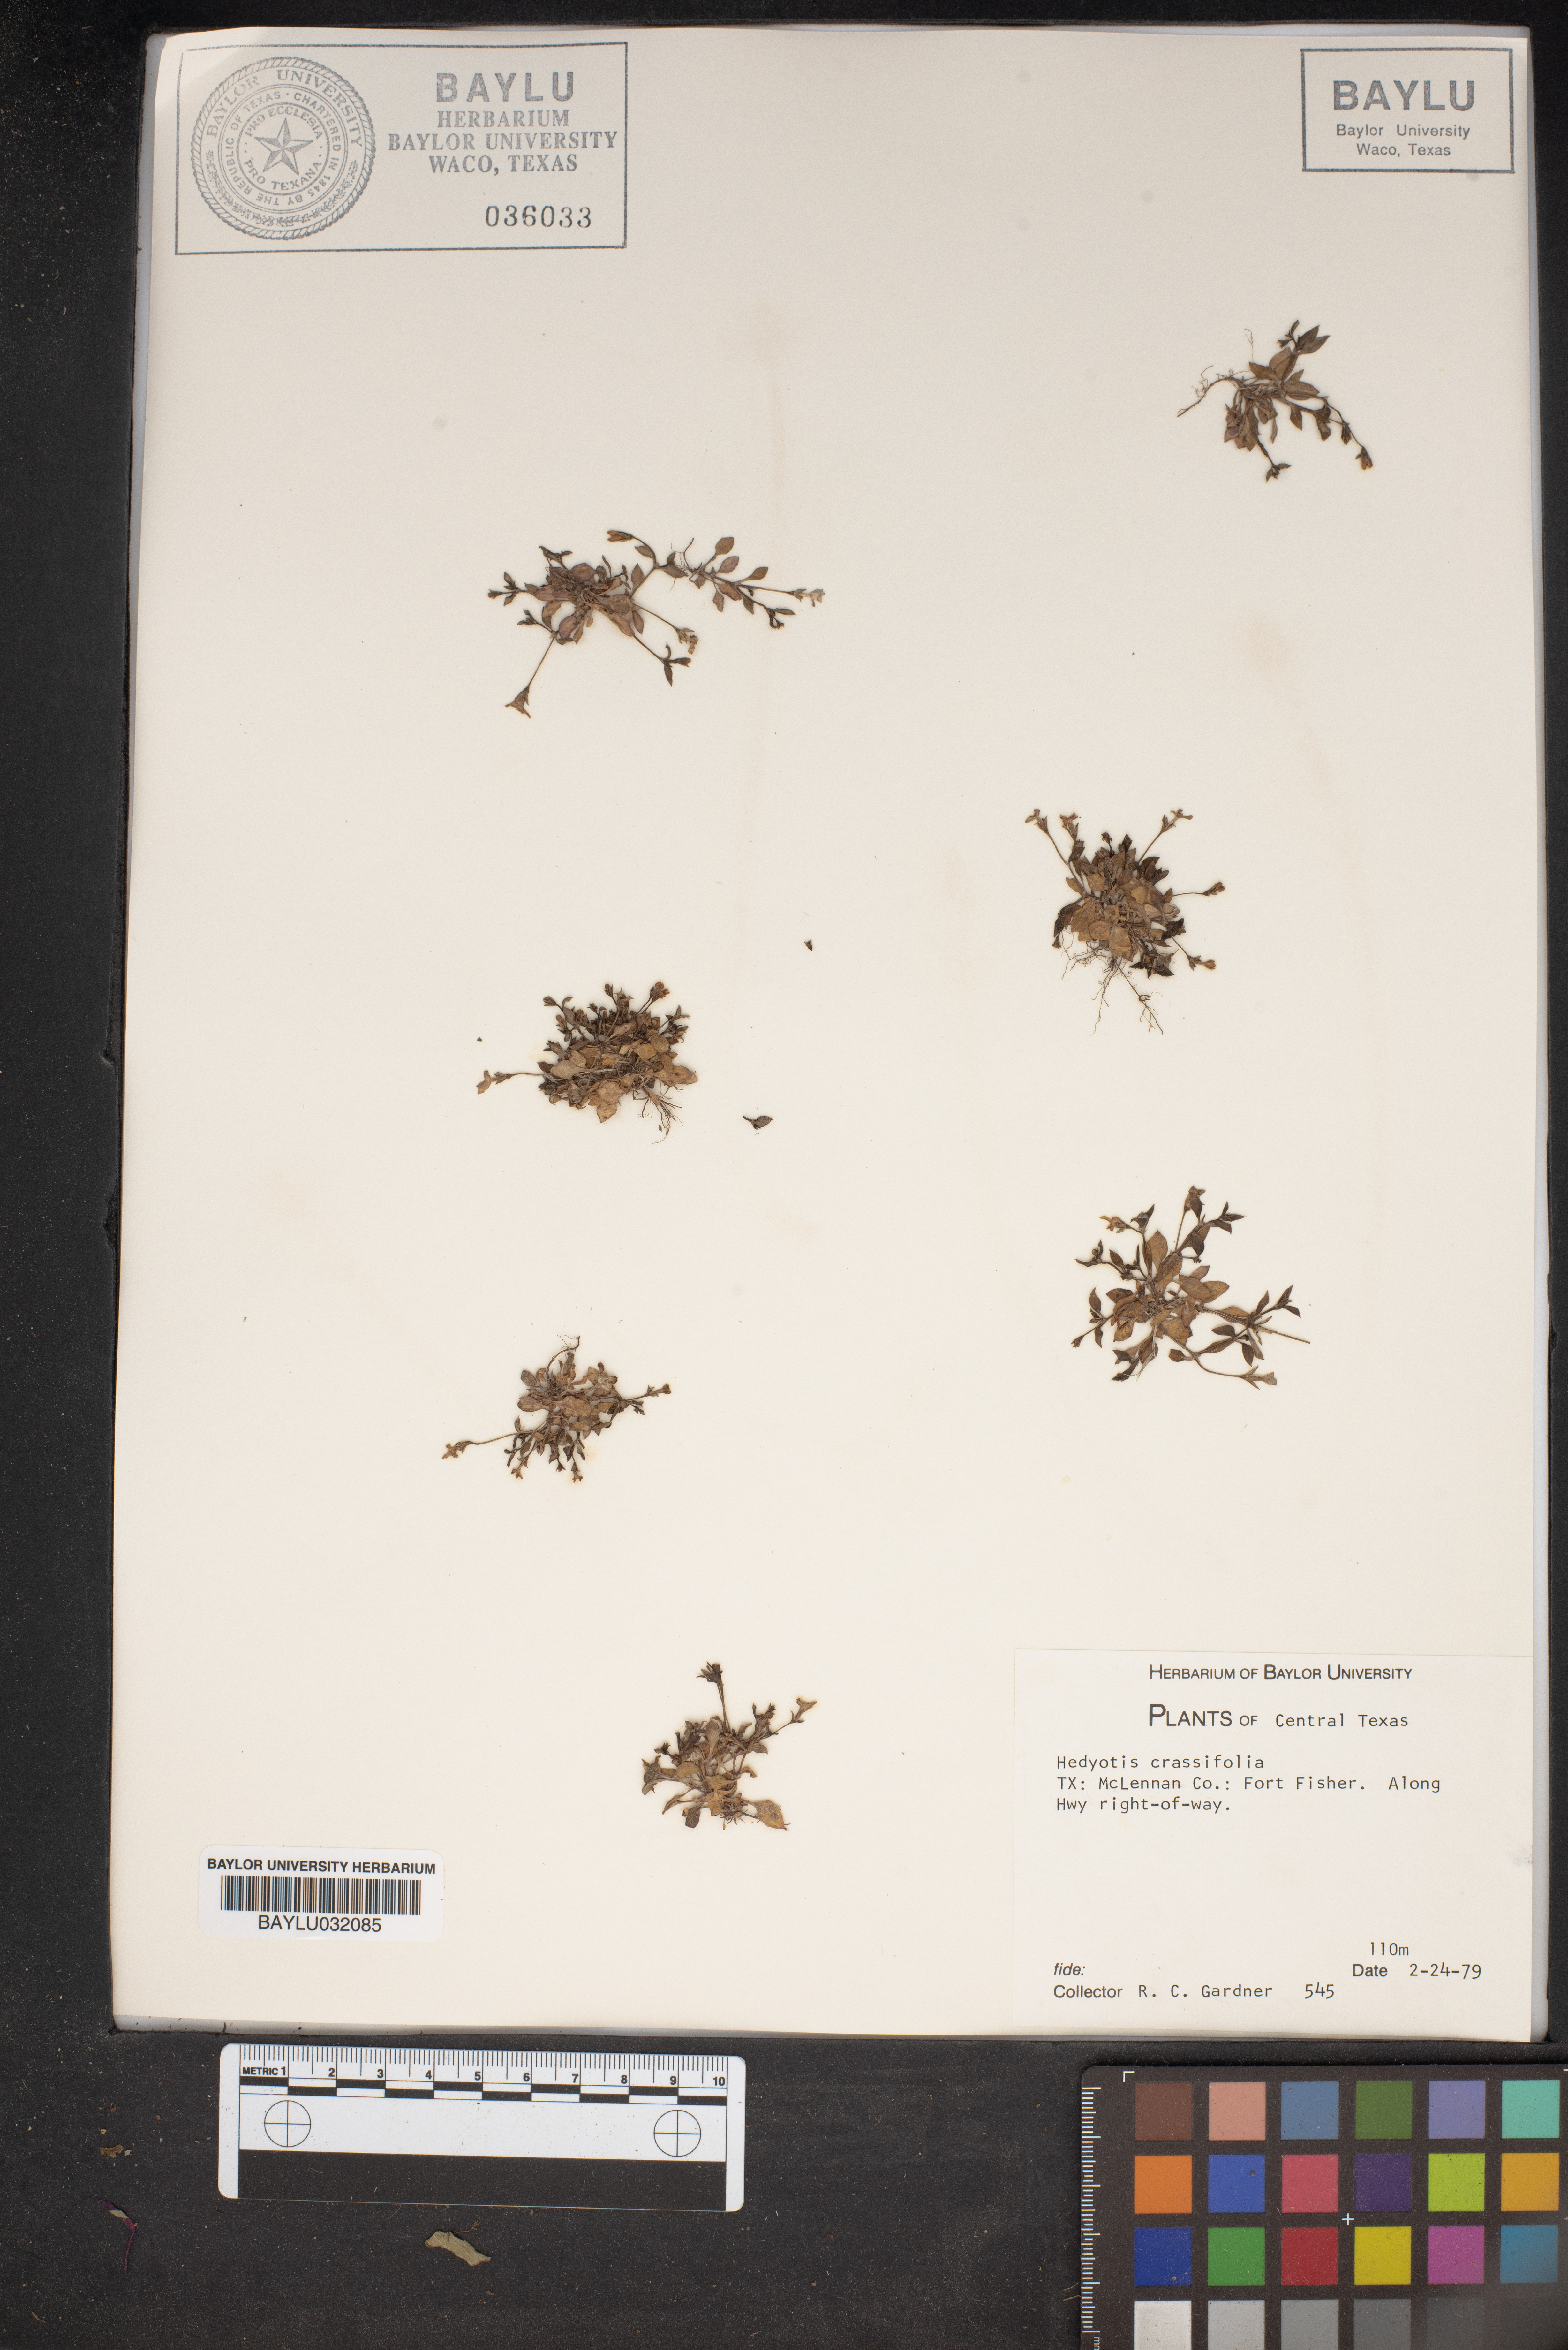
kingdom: Plantae
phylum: Tracheophyta
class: Magnoliopsida
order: Gentianales
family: Rubiaceae
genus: Houstonia
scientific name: Houstonia pusilla
